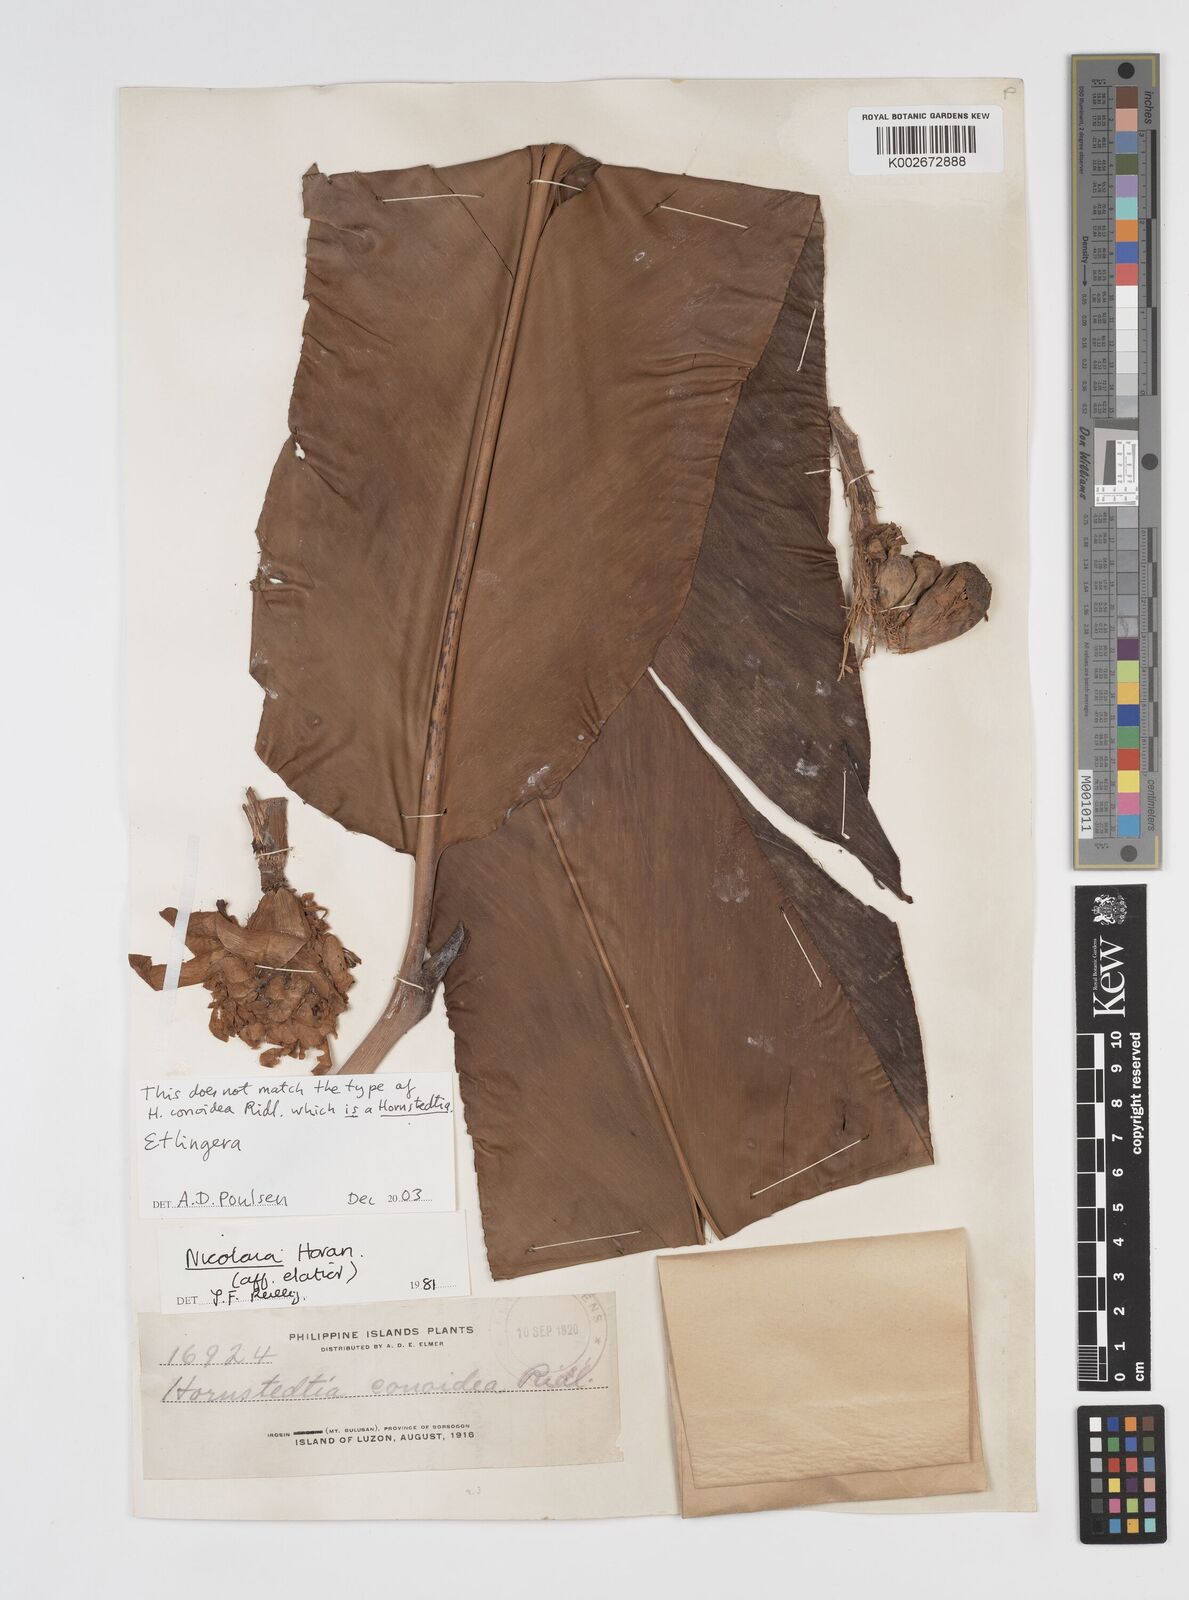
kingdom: Plantae
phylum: Tracheophyta
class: Liliopsida
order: Zingiberales
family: Zingiberaceae
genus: Etlingera
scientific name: Etlingera
